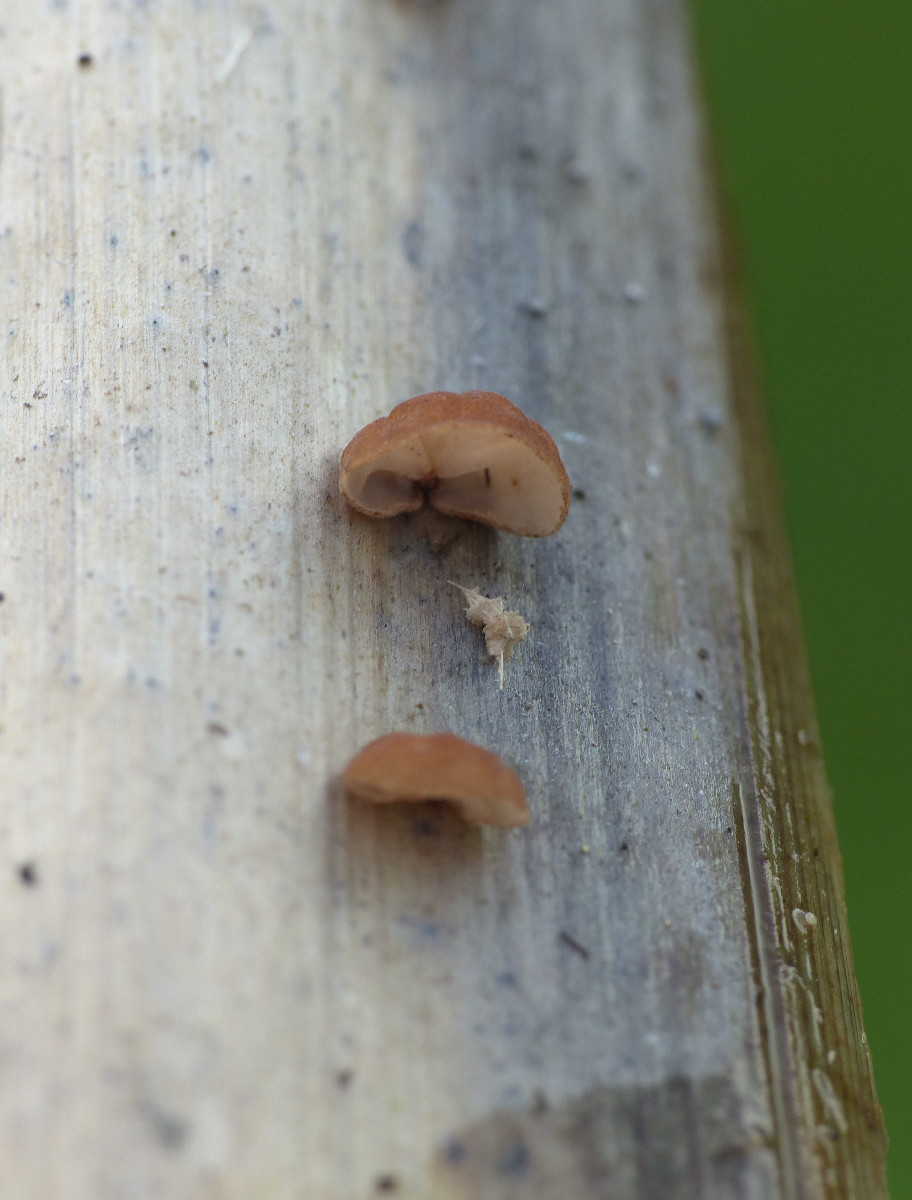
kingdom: Fungi
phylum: Basidiomycota
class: Agaricomycetes
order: Agaricales
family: Physalacriaceae
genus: Gloiocephala
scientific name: Gloiocephala menieri
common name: dunhammer-spatelhat
